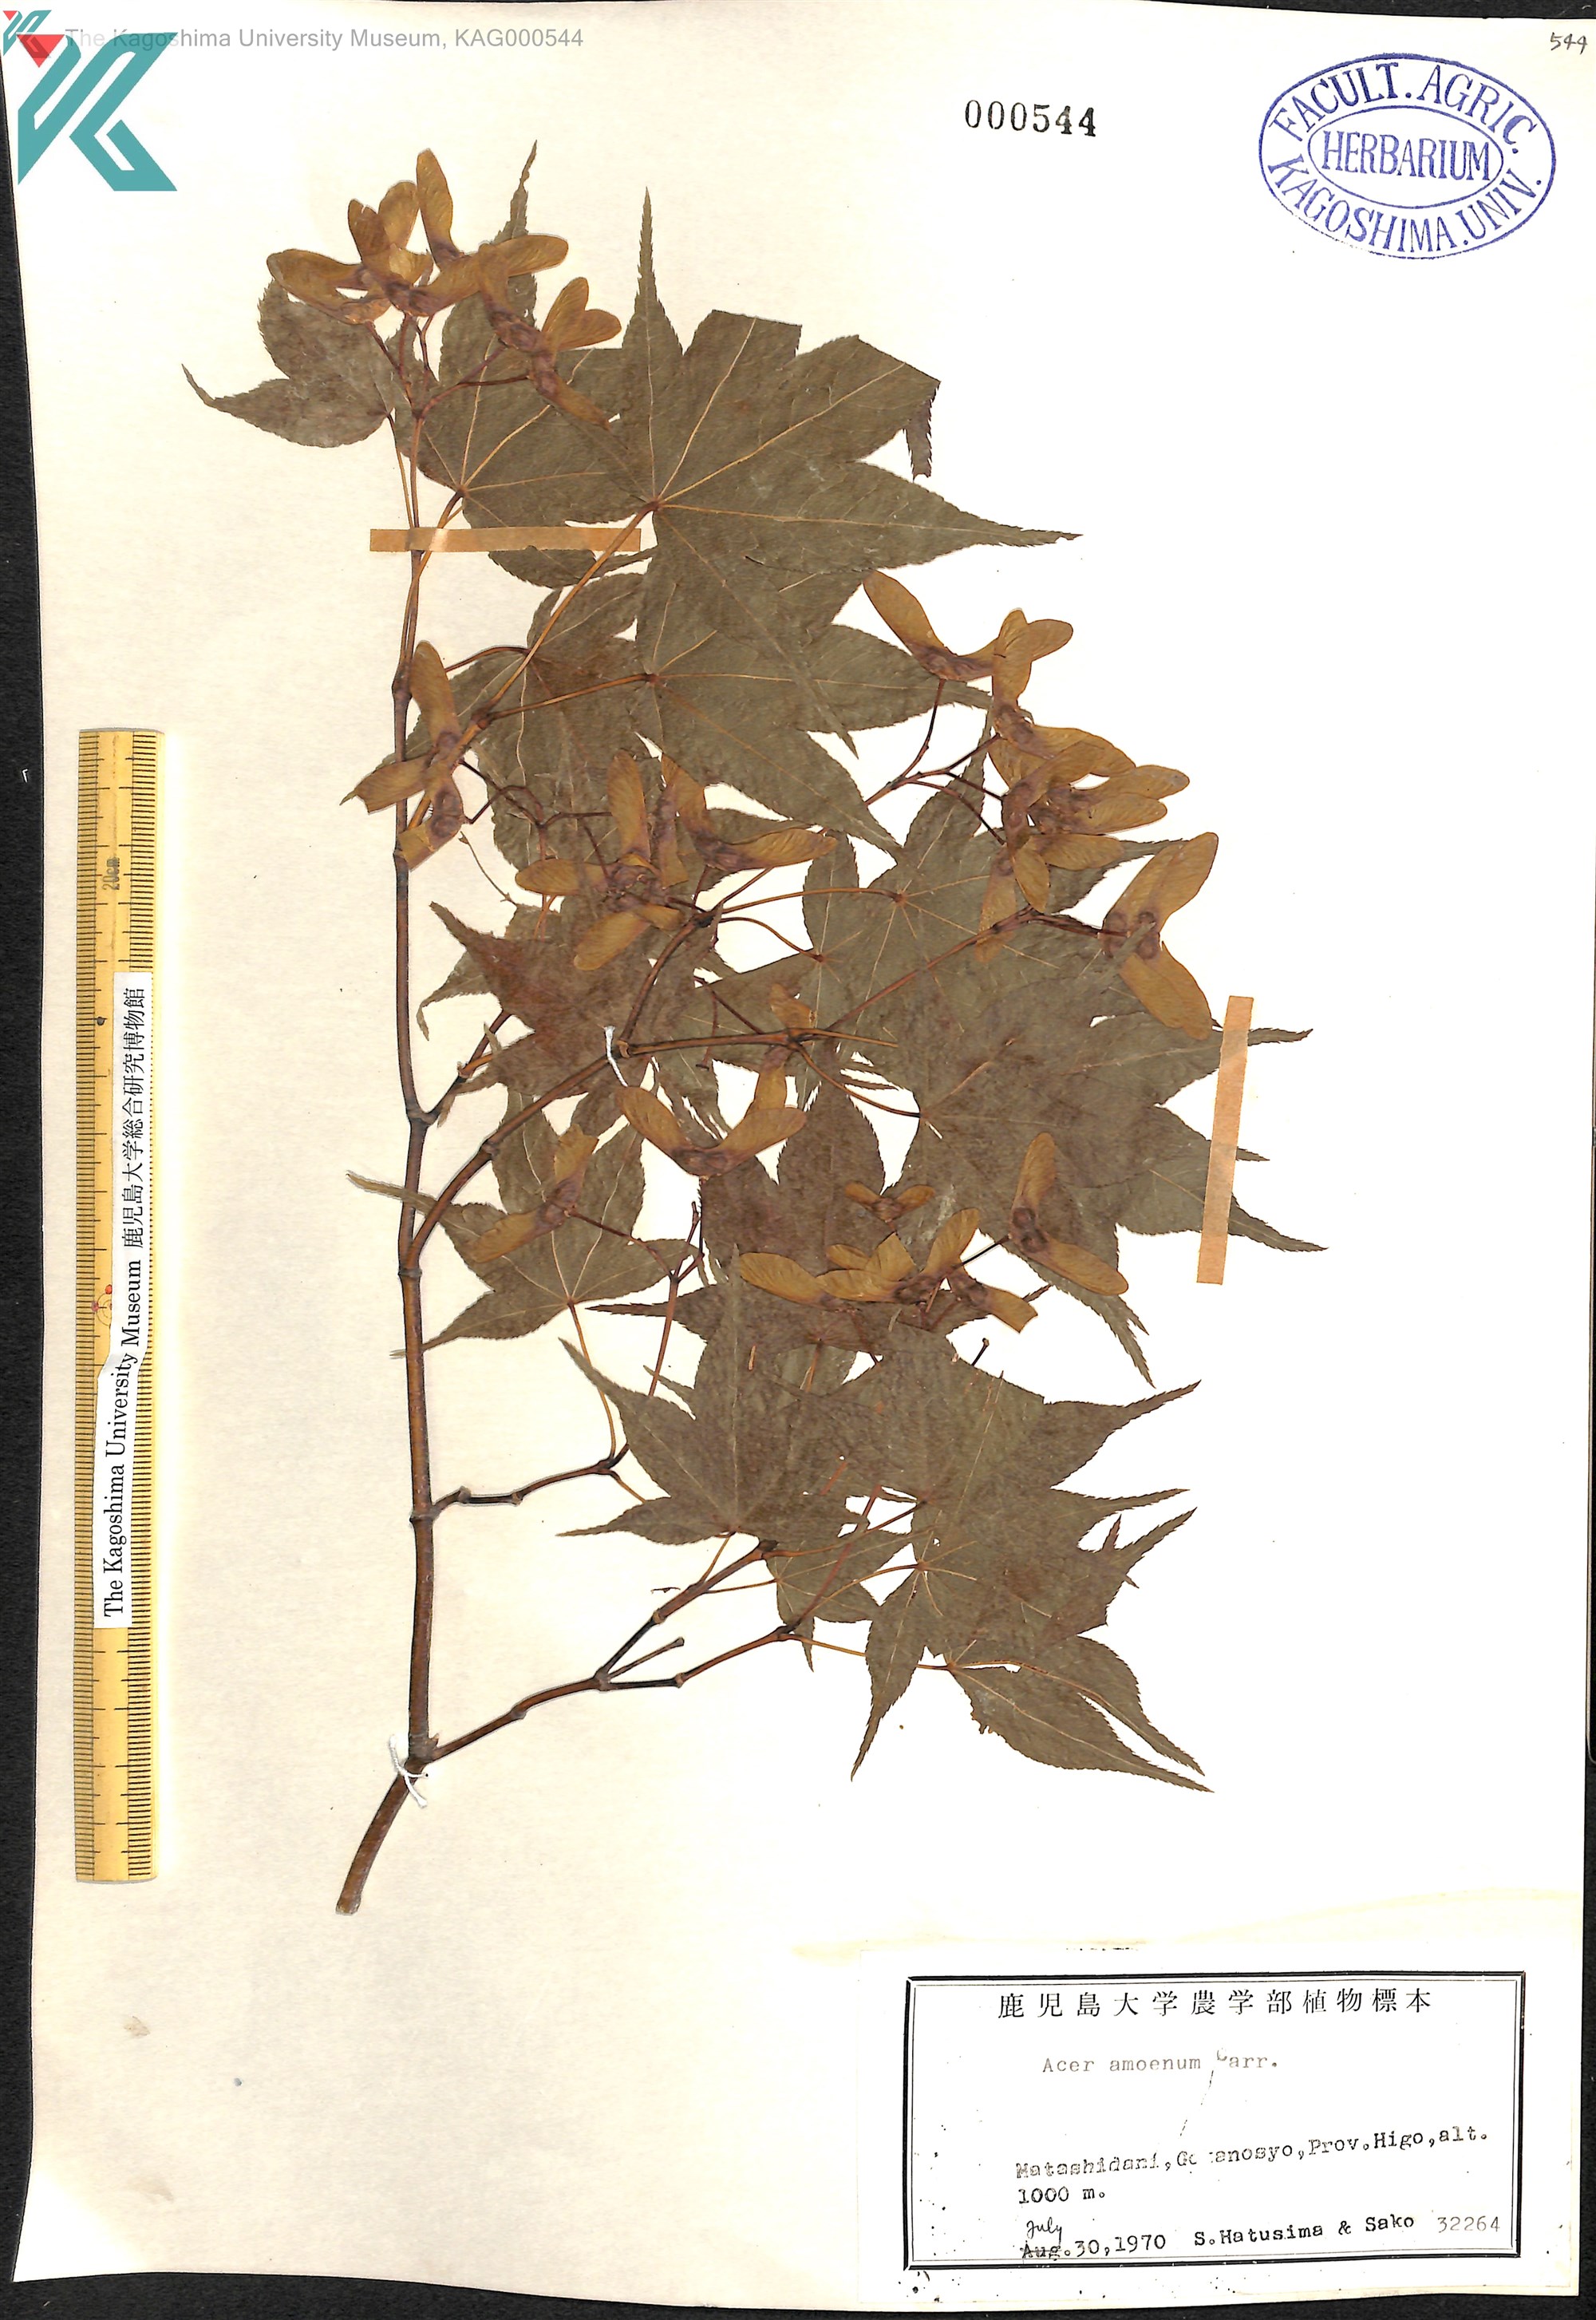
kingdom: Plantae
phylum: Tracheophyta
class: Magnoliopsida
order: Sapindales
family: Sapindaceae
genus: Acer
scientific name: Acer palmatum
